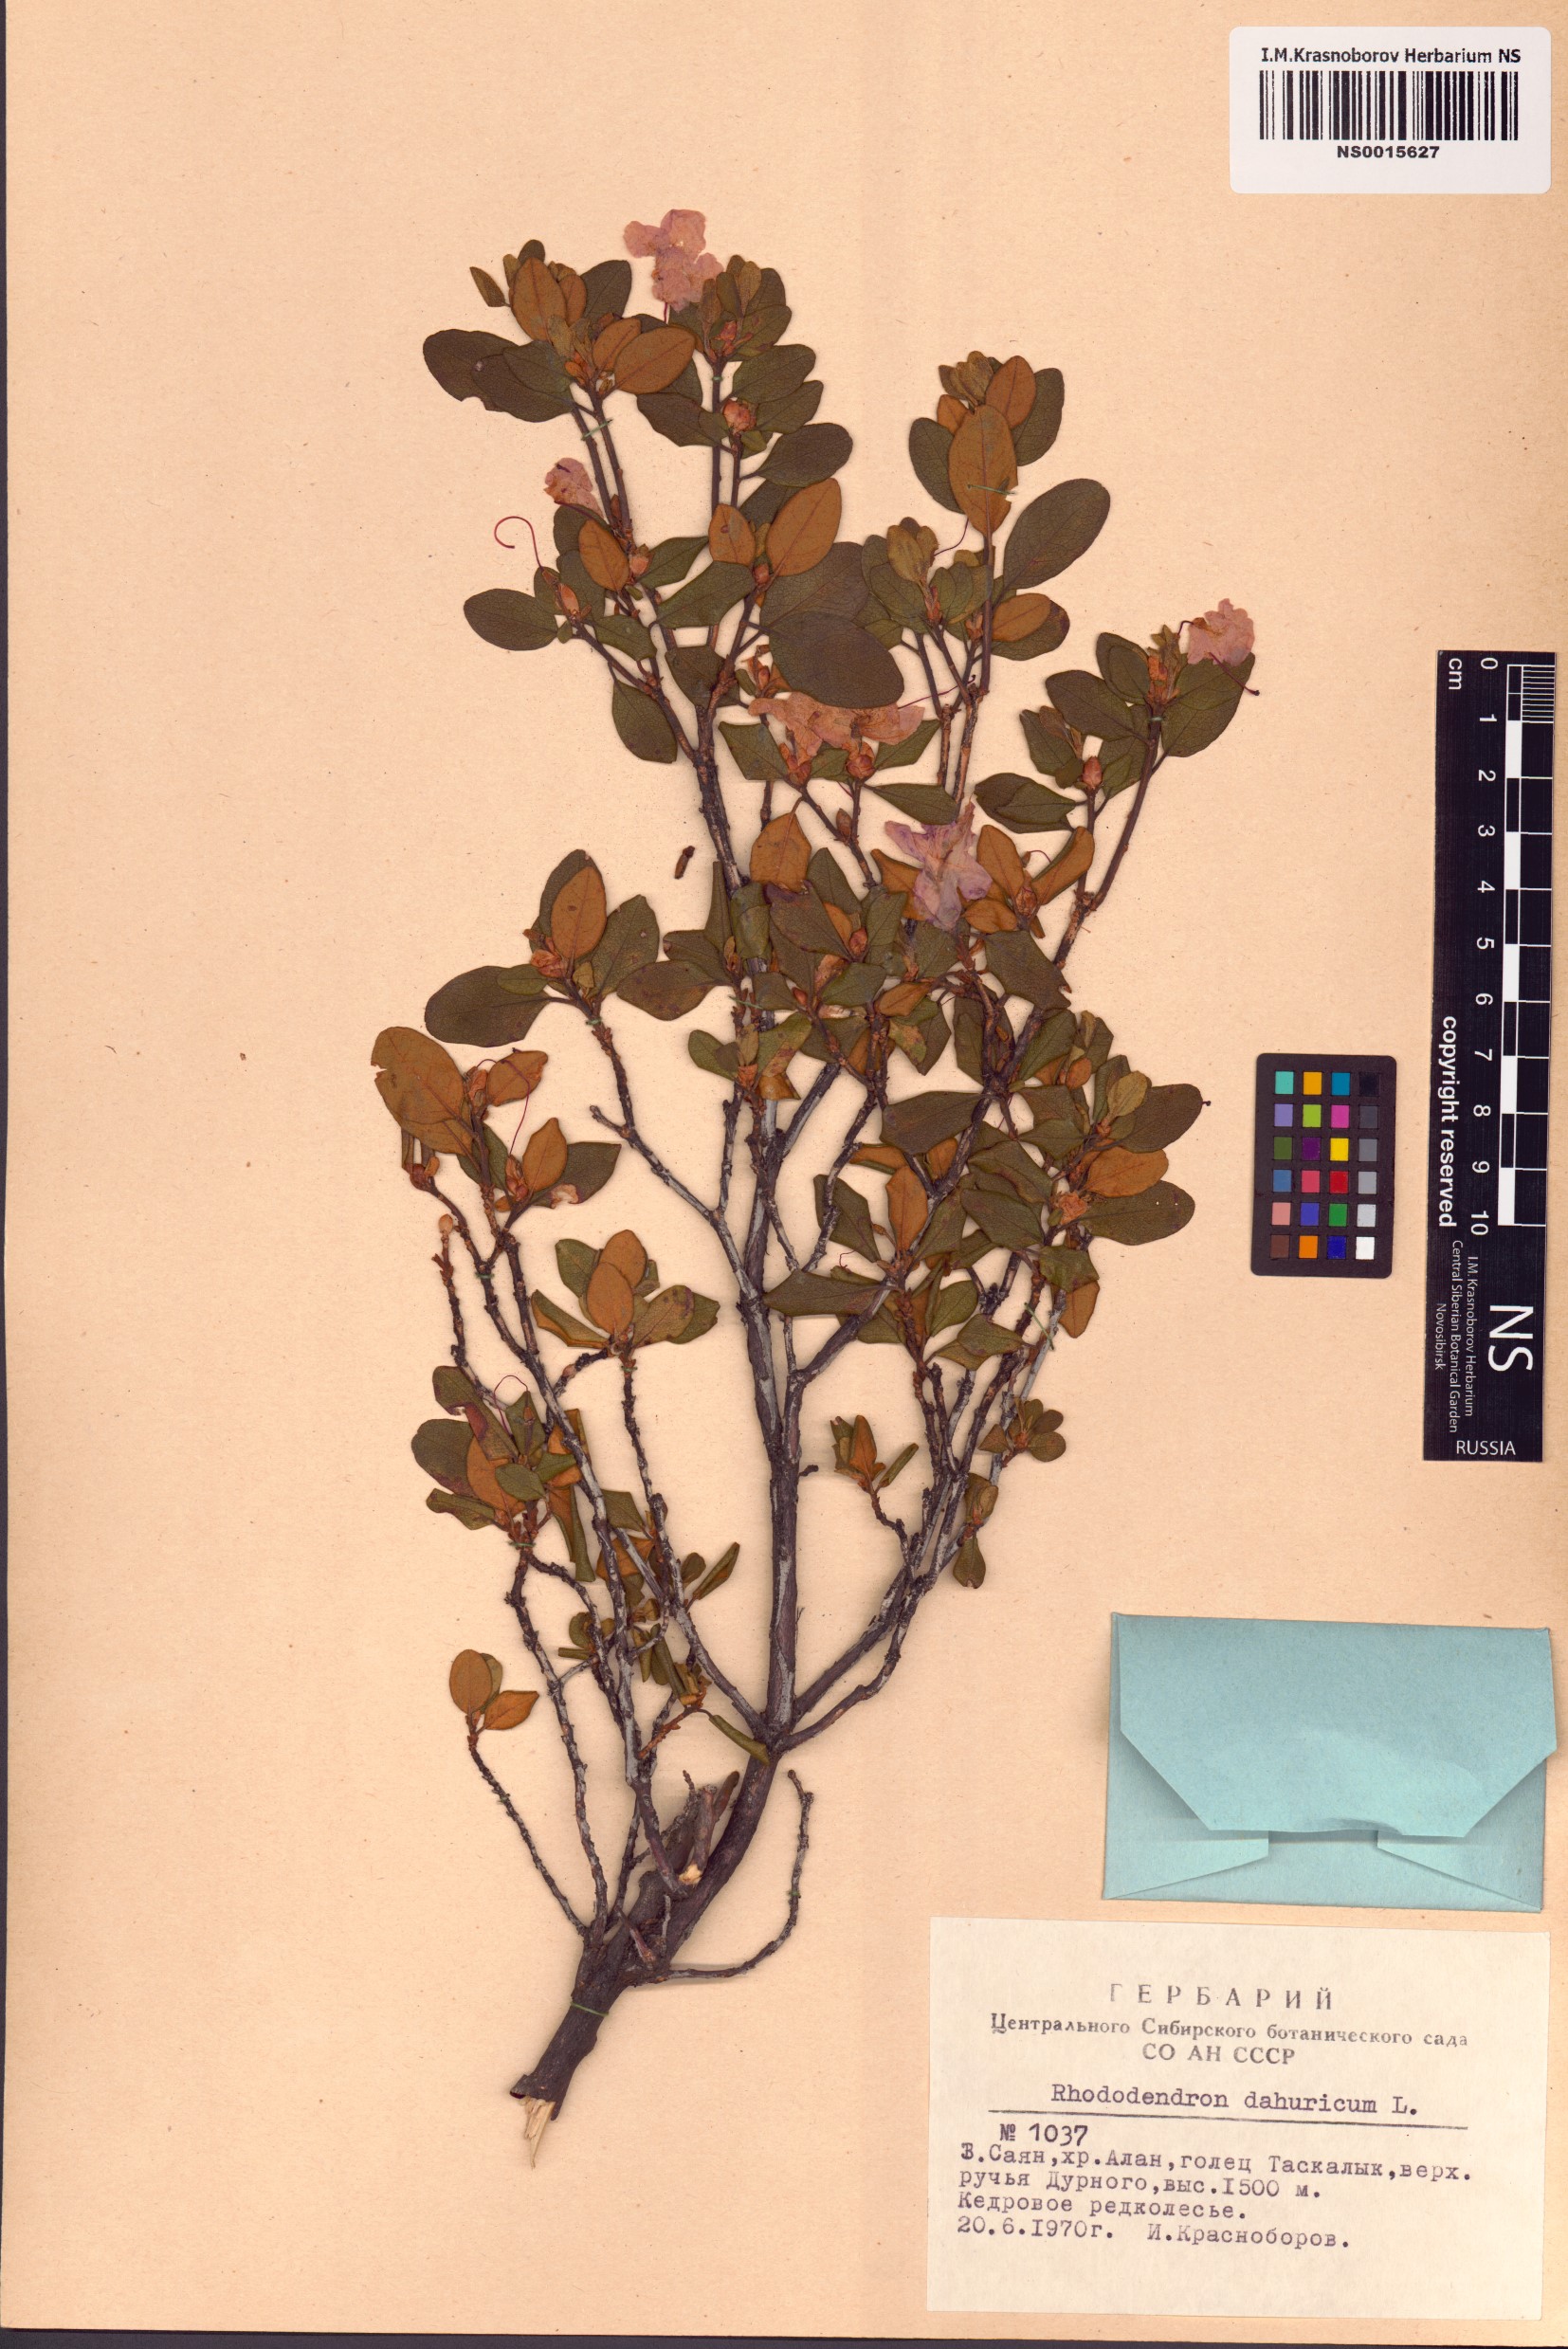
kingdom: Plantae
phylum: Tracheophyta
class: Magnoliopsida
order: Ericales
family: Ericaceae
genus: Rhododendron
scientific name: Rhododendron dauricum
